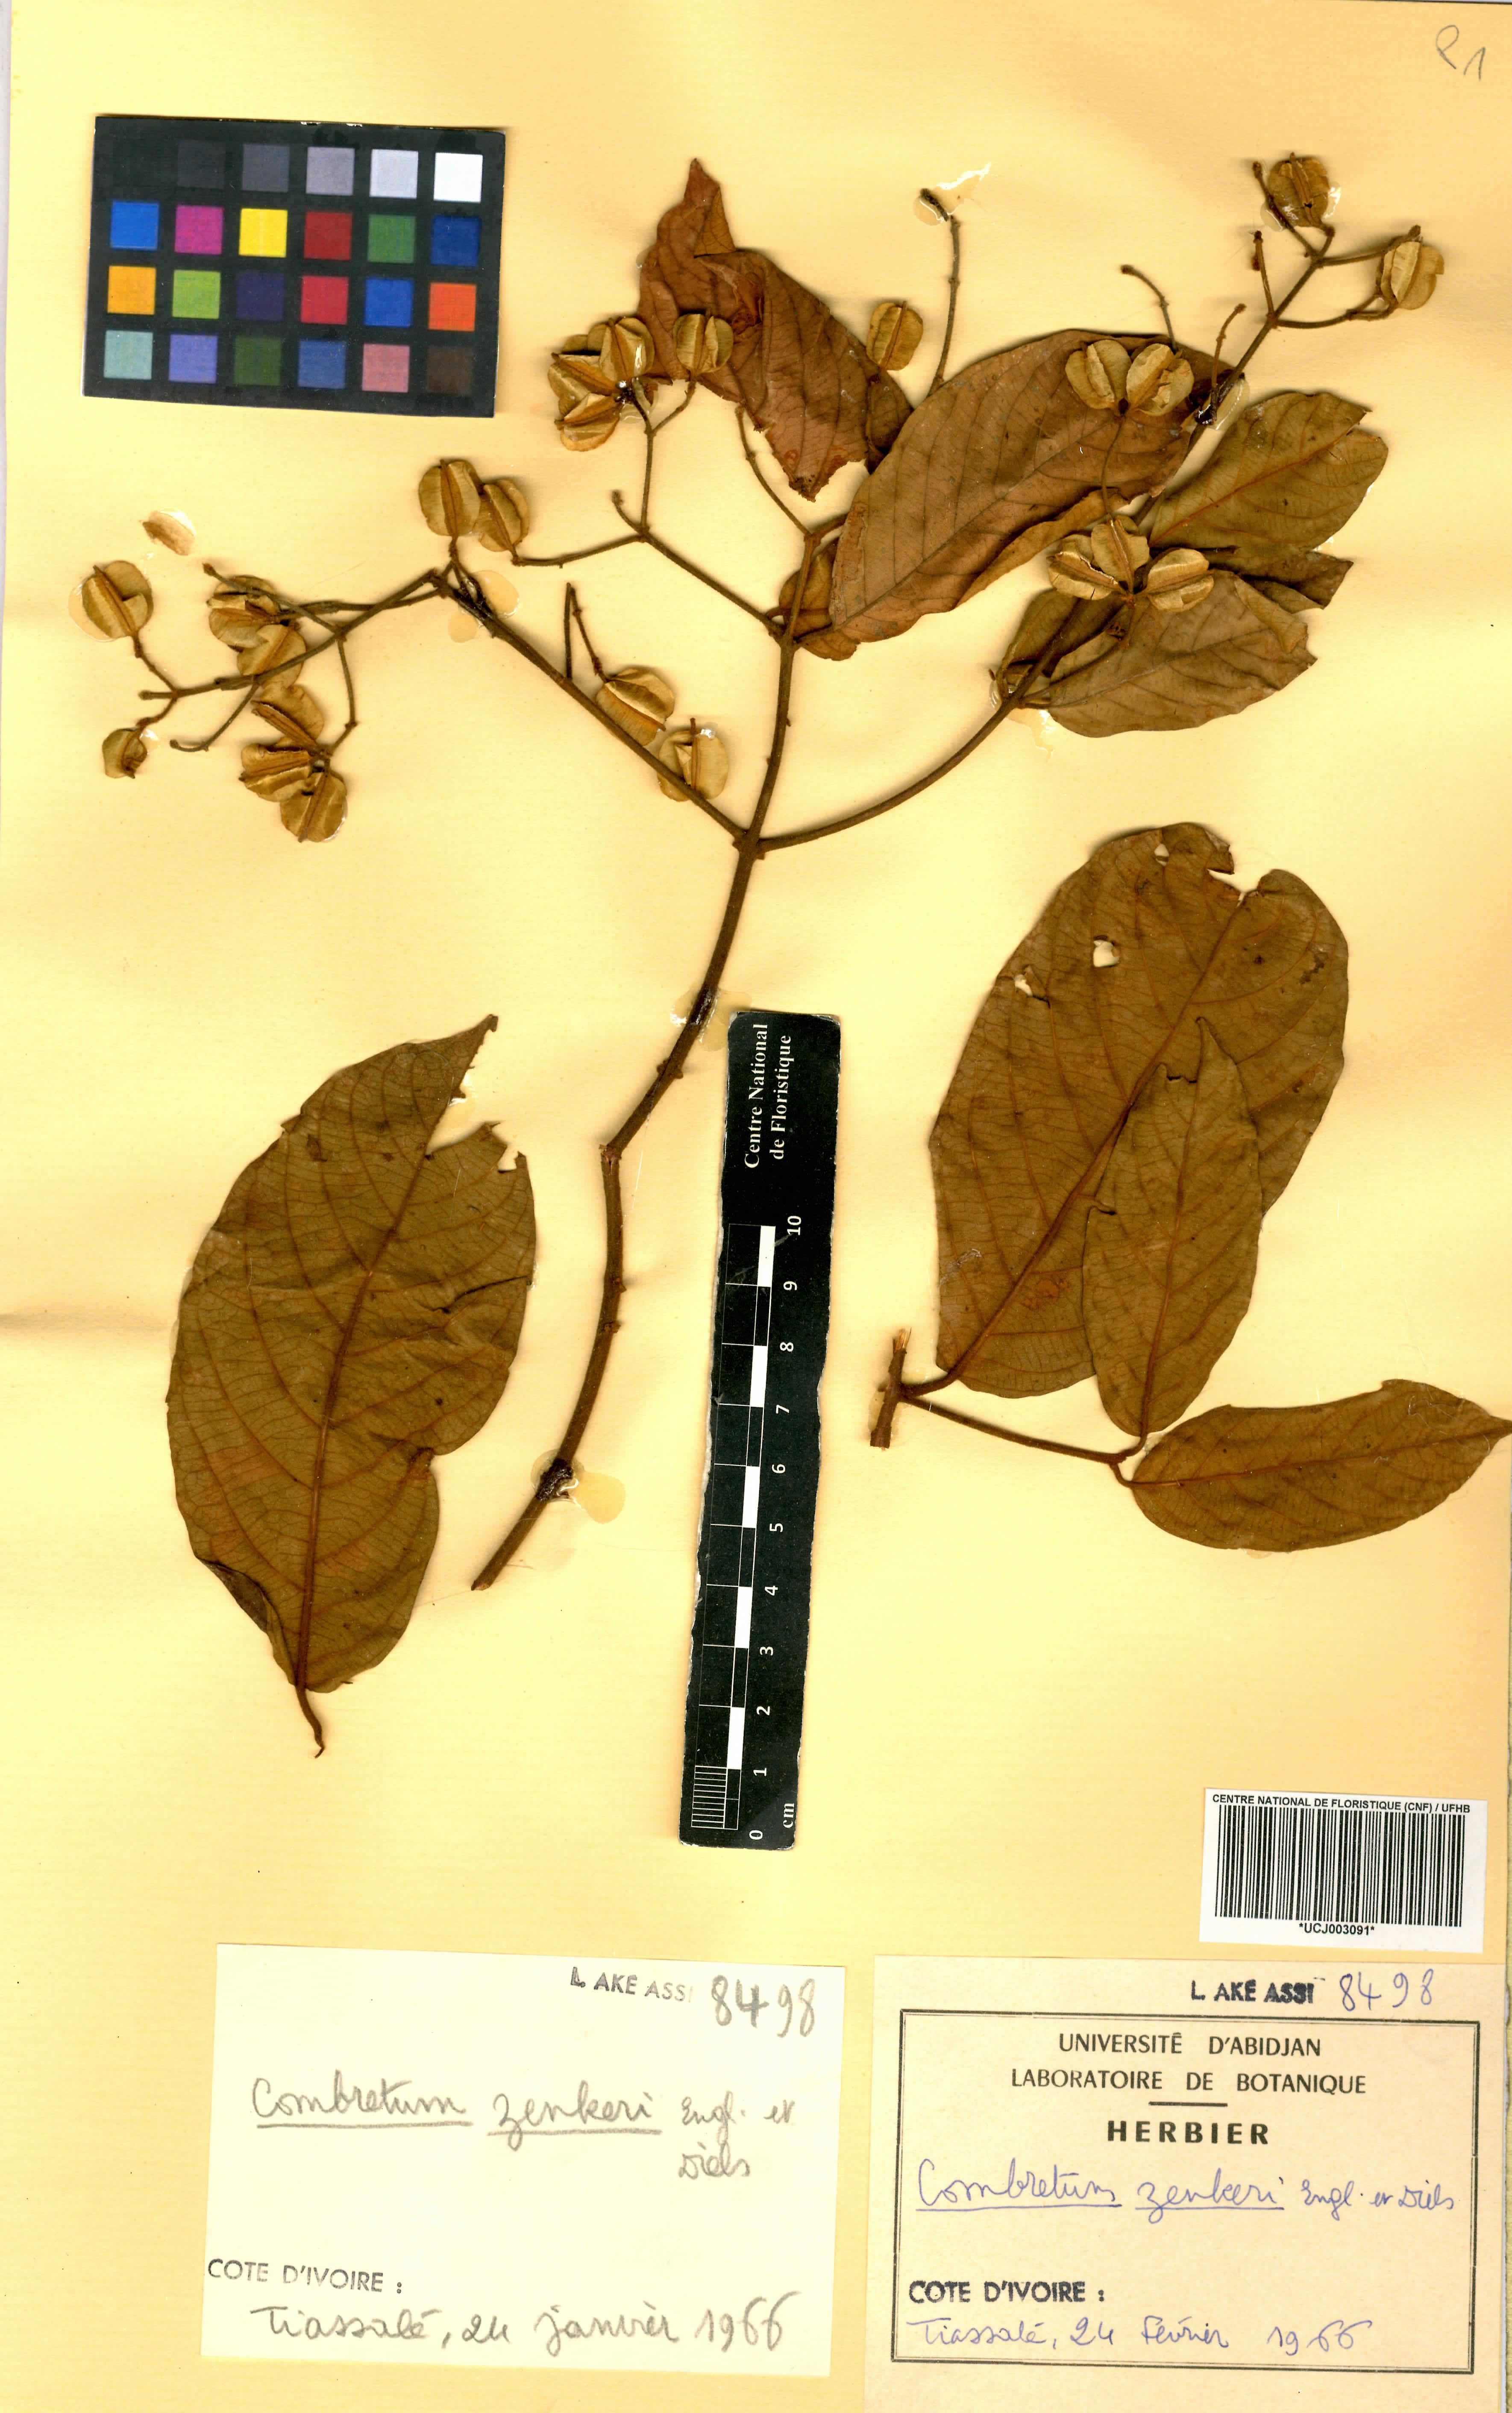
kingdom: Plantae
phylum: Tracheophyta
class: Magnoliopsida
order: Myrtales
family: Combretaceae
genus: Combretum
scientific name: Combretum zenkeri
